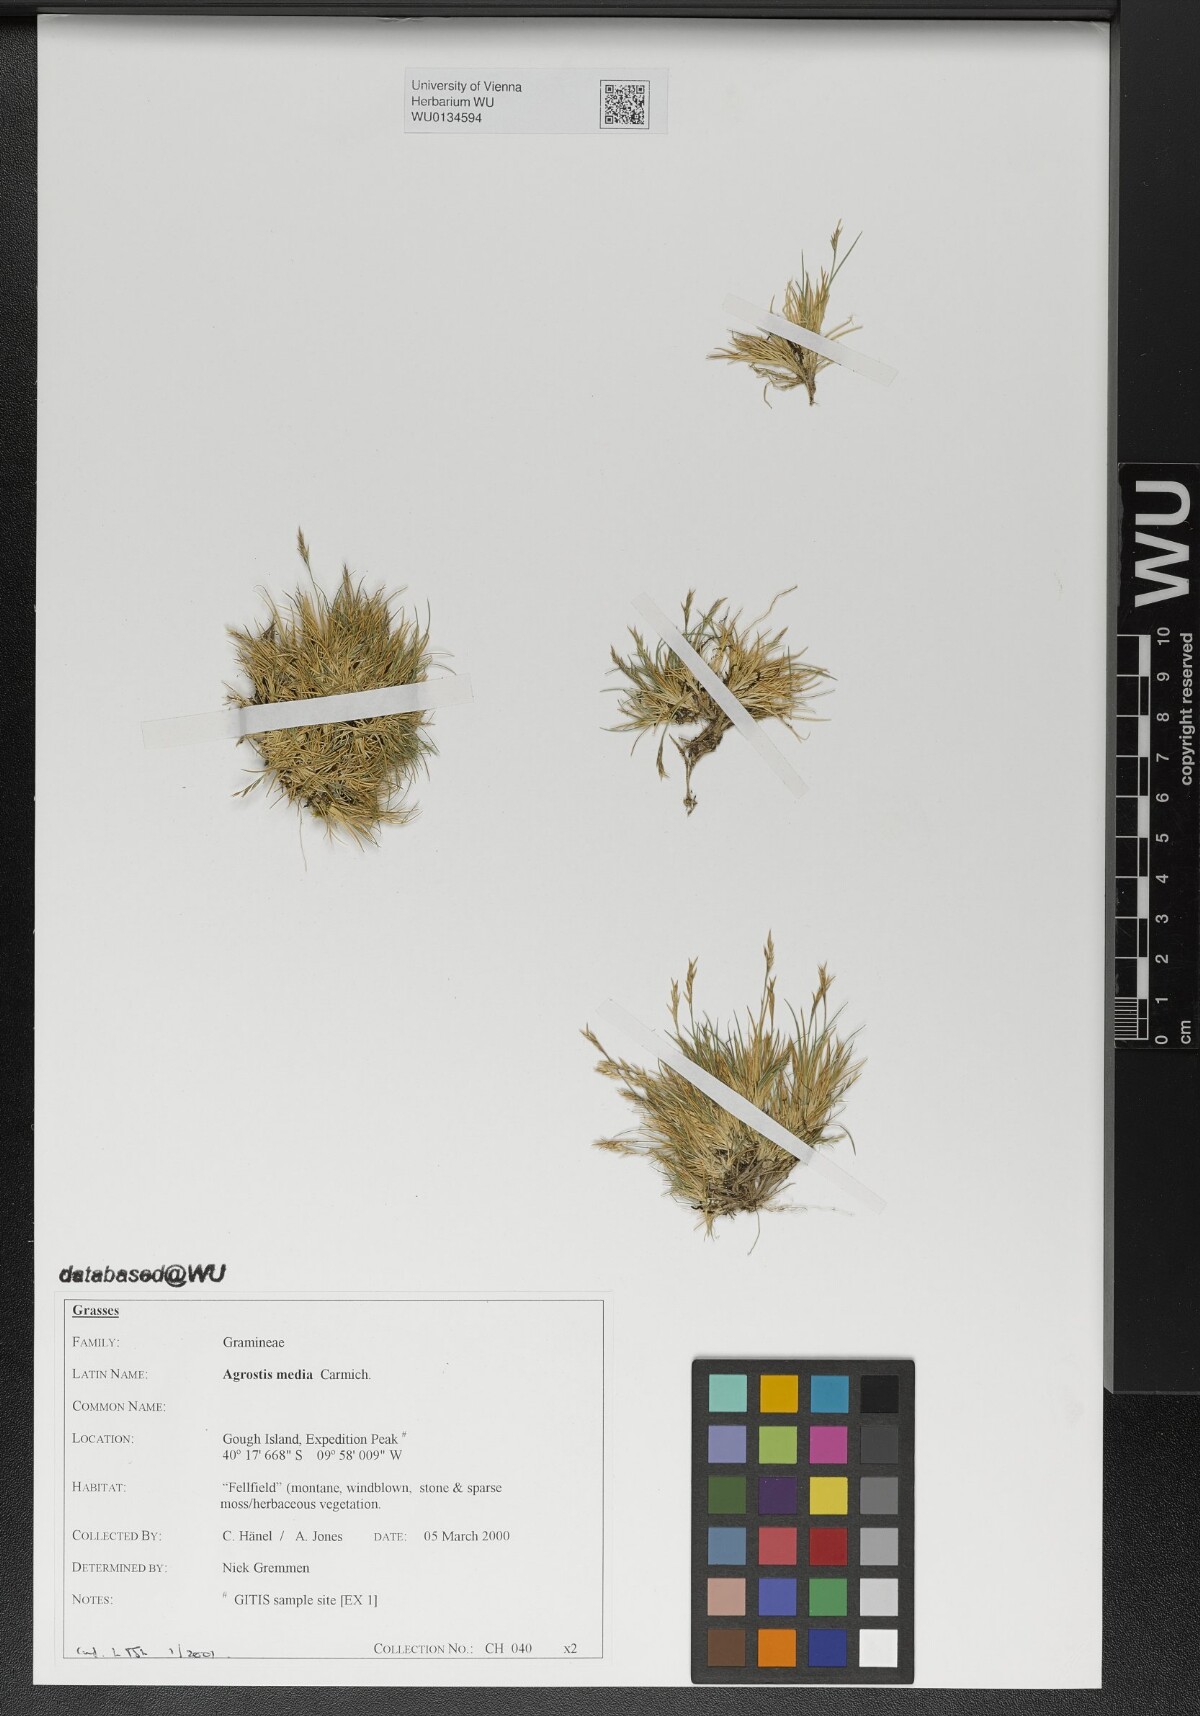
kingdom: Plantae
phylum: Tracheophyta
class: Liliopsida
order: Poales
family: Poaceae
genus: Agrostis
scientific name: Agrostis media
